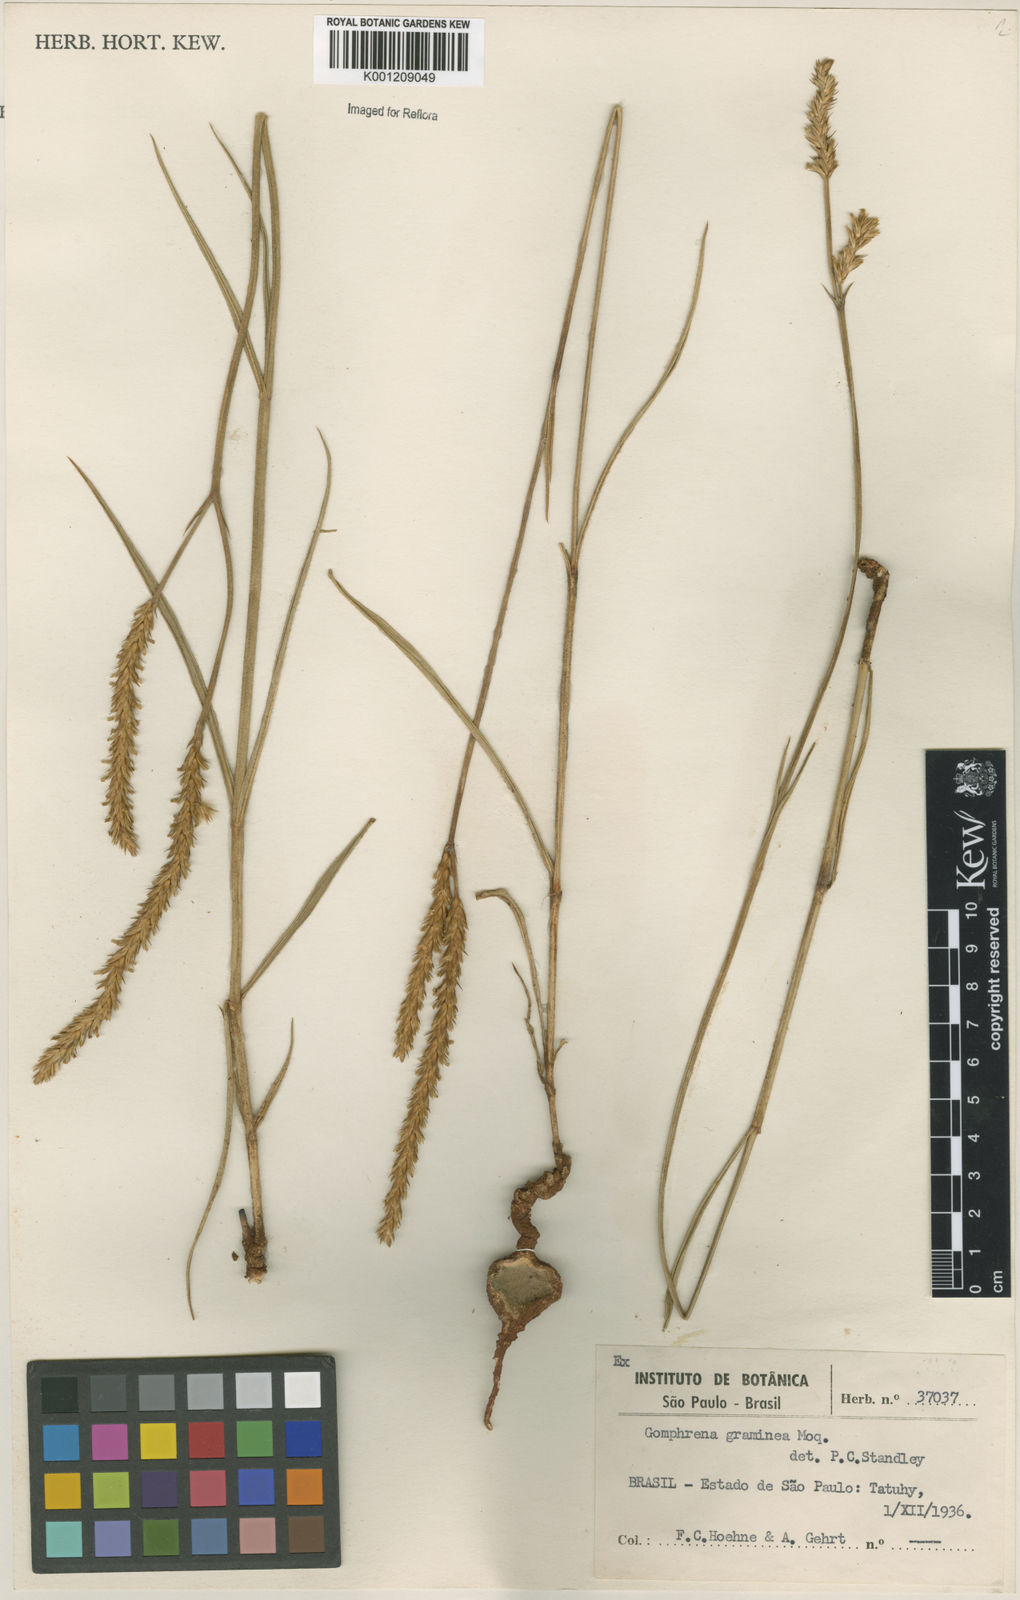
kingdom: Plantae
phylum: Tracheophyta
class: Magnoliopsida
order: Caryophyllales
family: Amaranthaceae
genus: Gomphrena
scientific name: Gomphrena graminea
